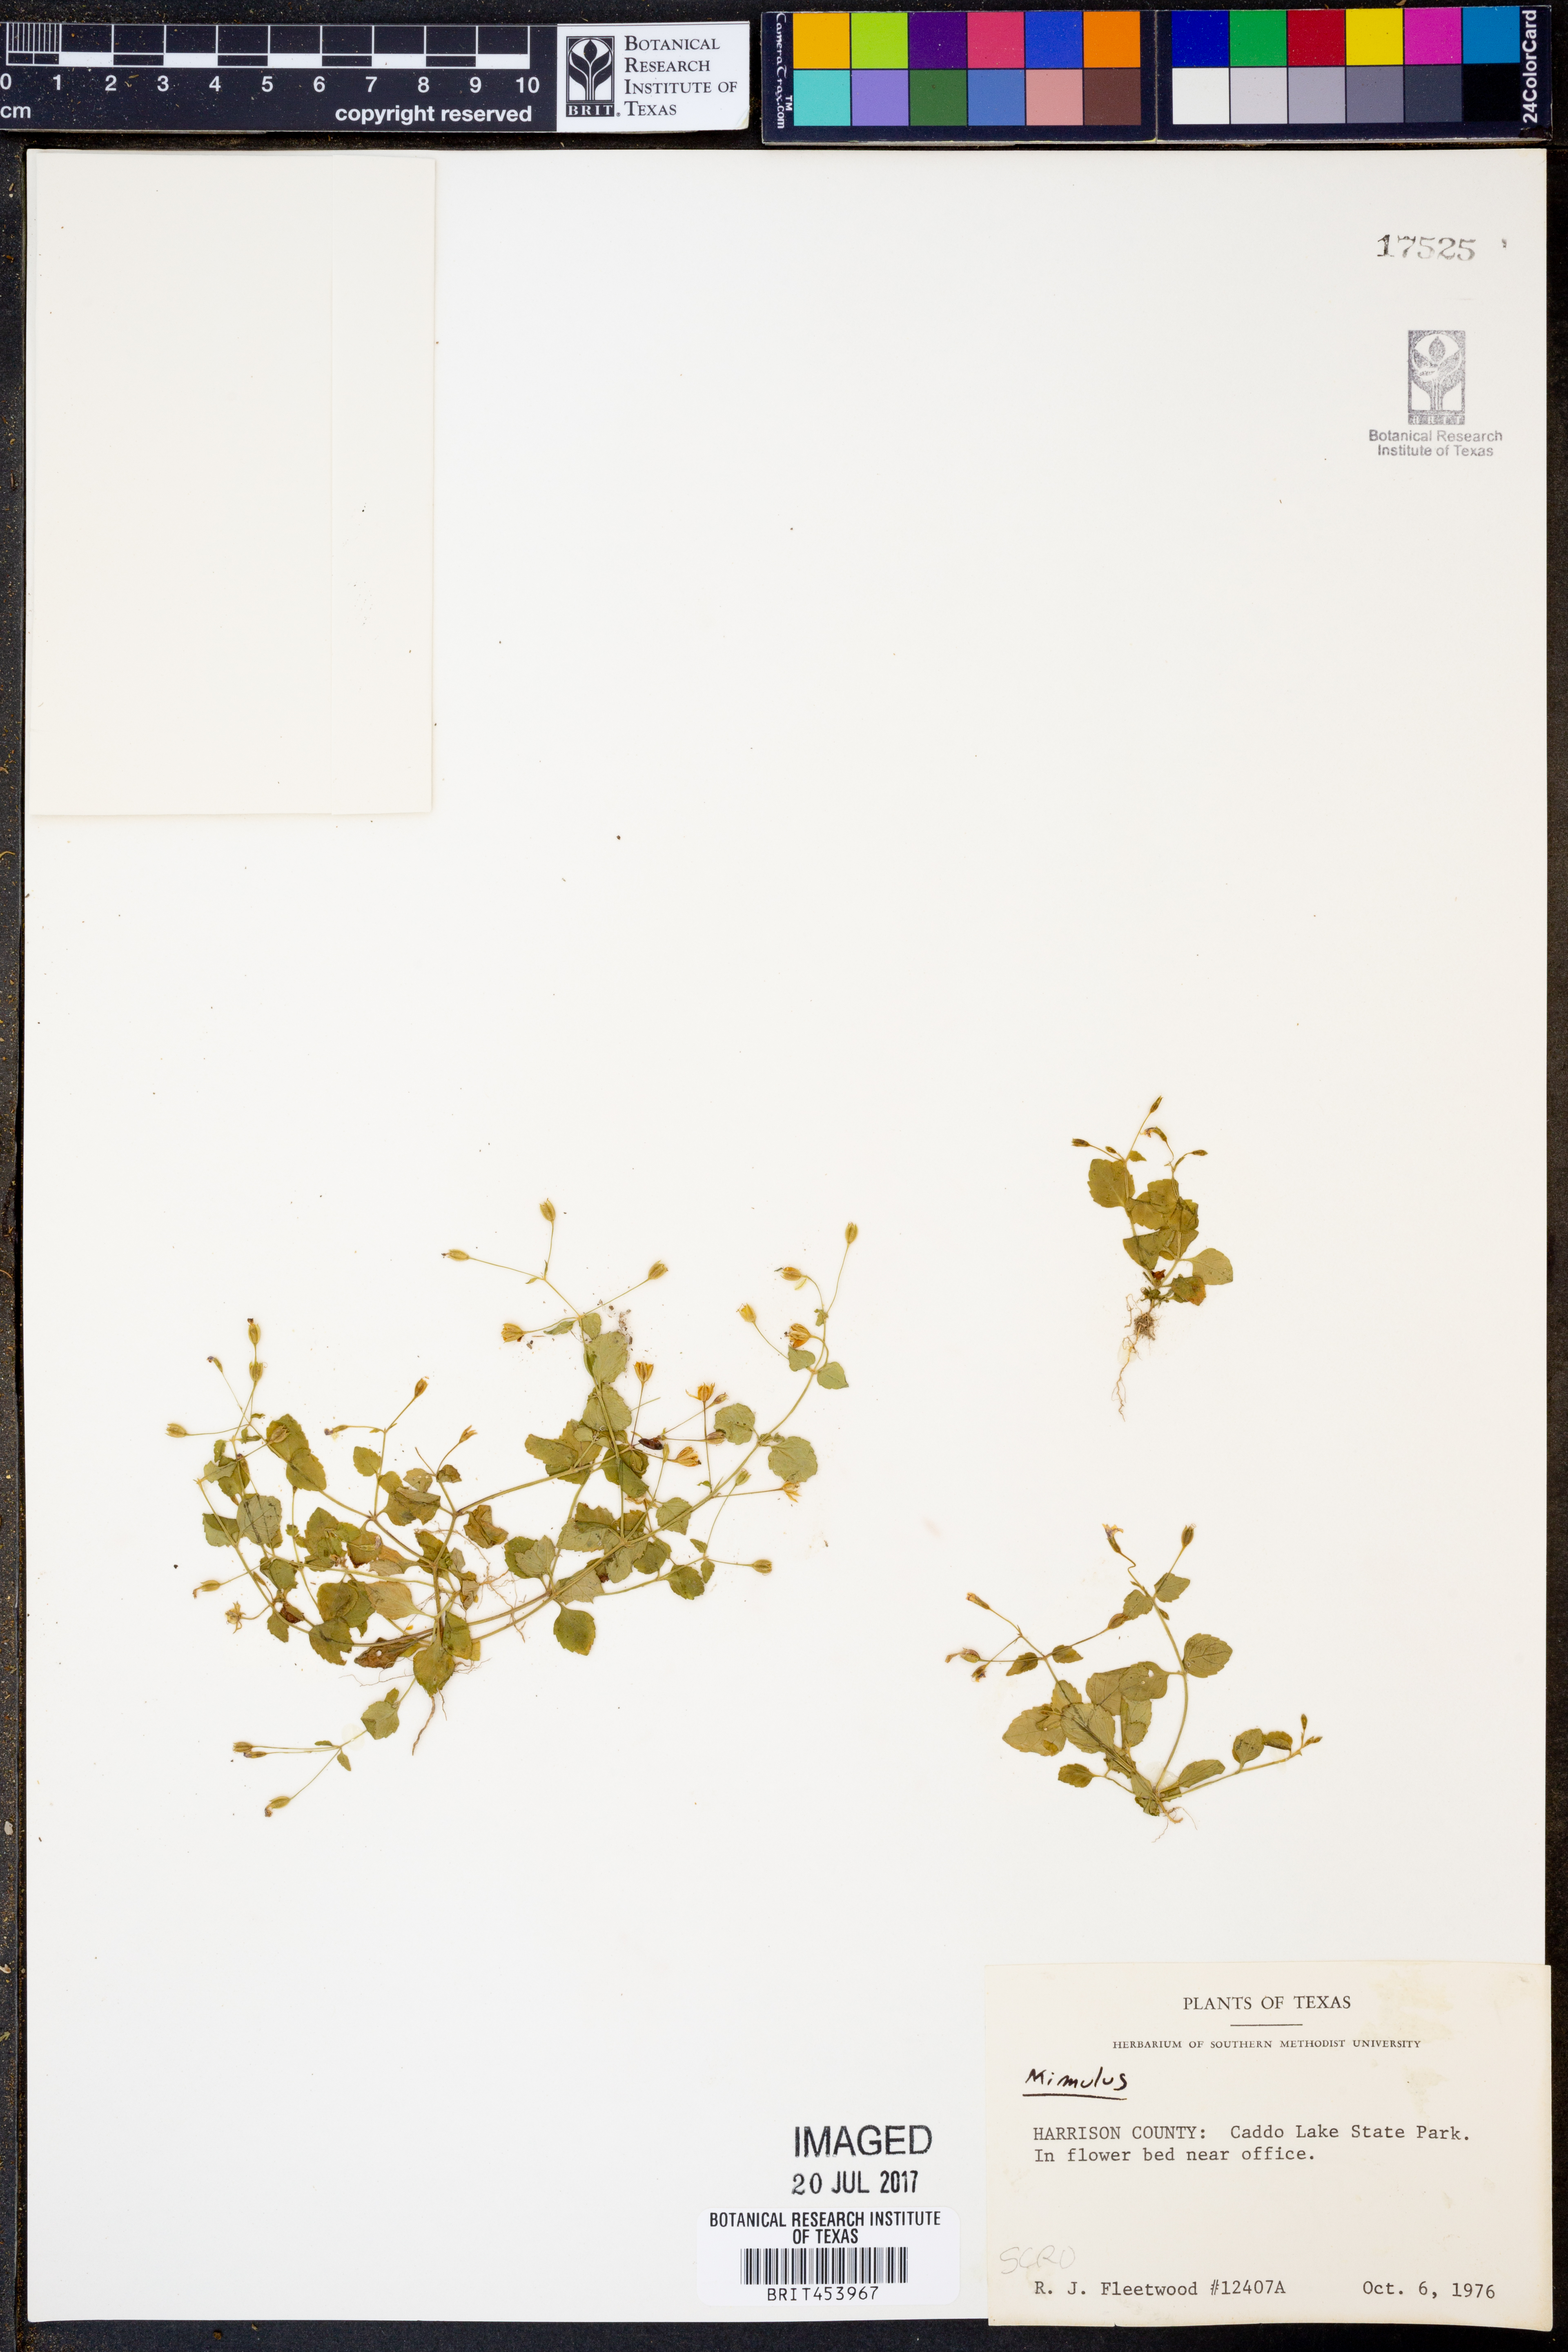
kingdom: Plantae
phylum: Tracheophyta
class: Magnoliopsida
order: Lamiales
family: Phrymaceae
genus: Mimulus
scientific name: Mimulus
